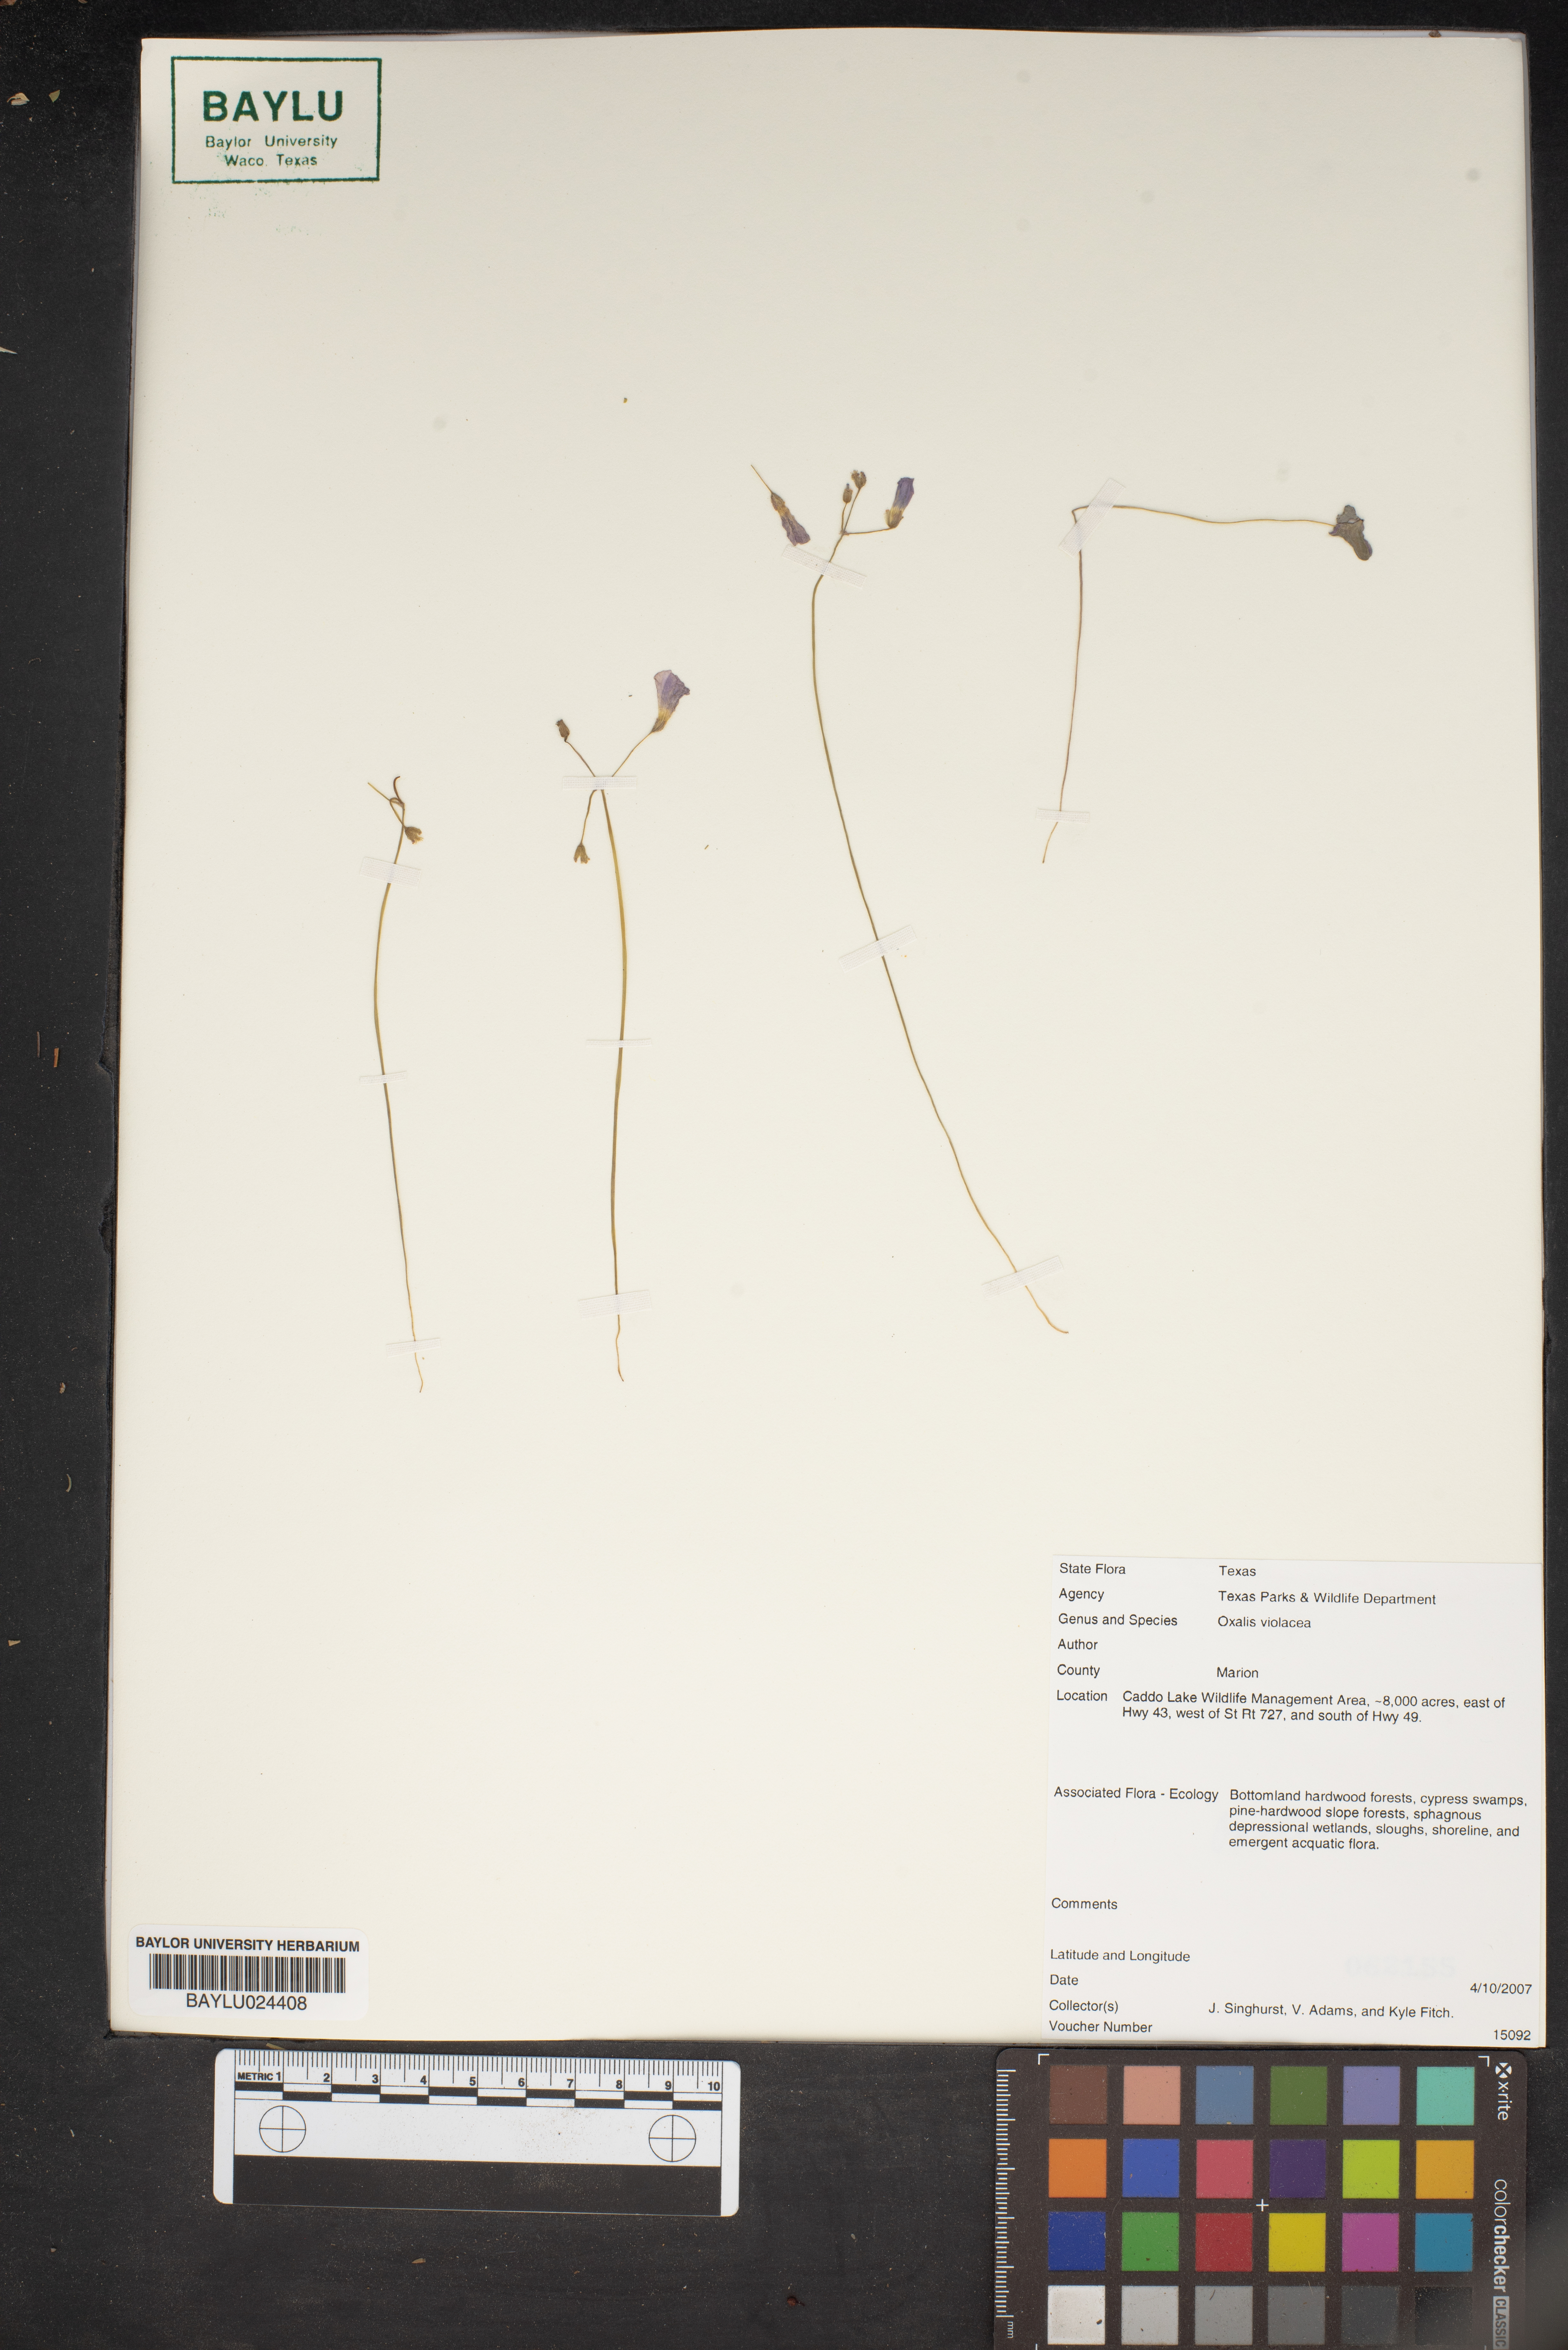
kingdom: Plantae
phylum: Tracheophyta
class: Magnoliopsida
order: Oxalidales
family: Oxalidaceae
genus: Oxalis
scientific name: Oxalis violacea
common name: Violet wood-sorrel
